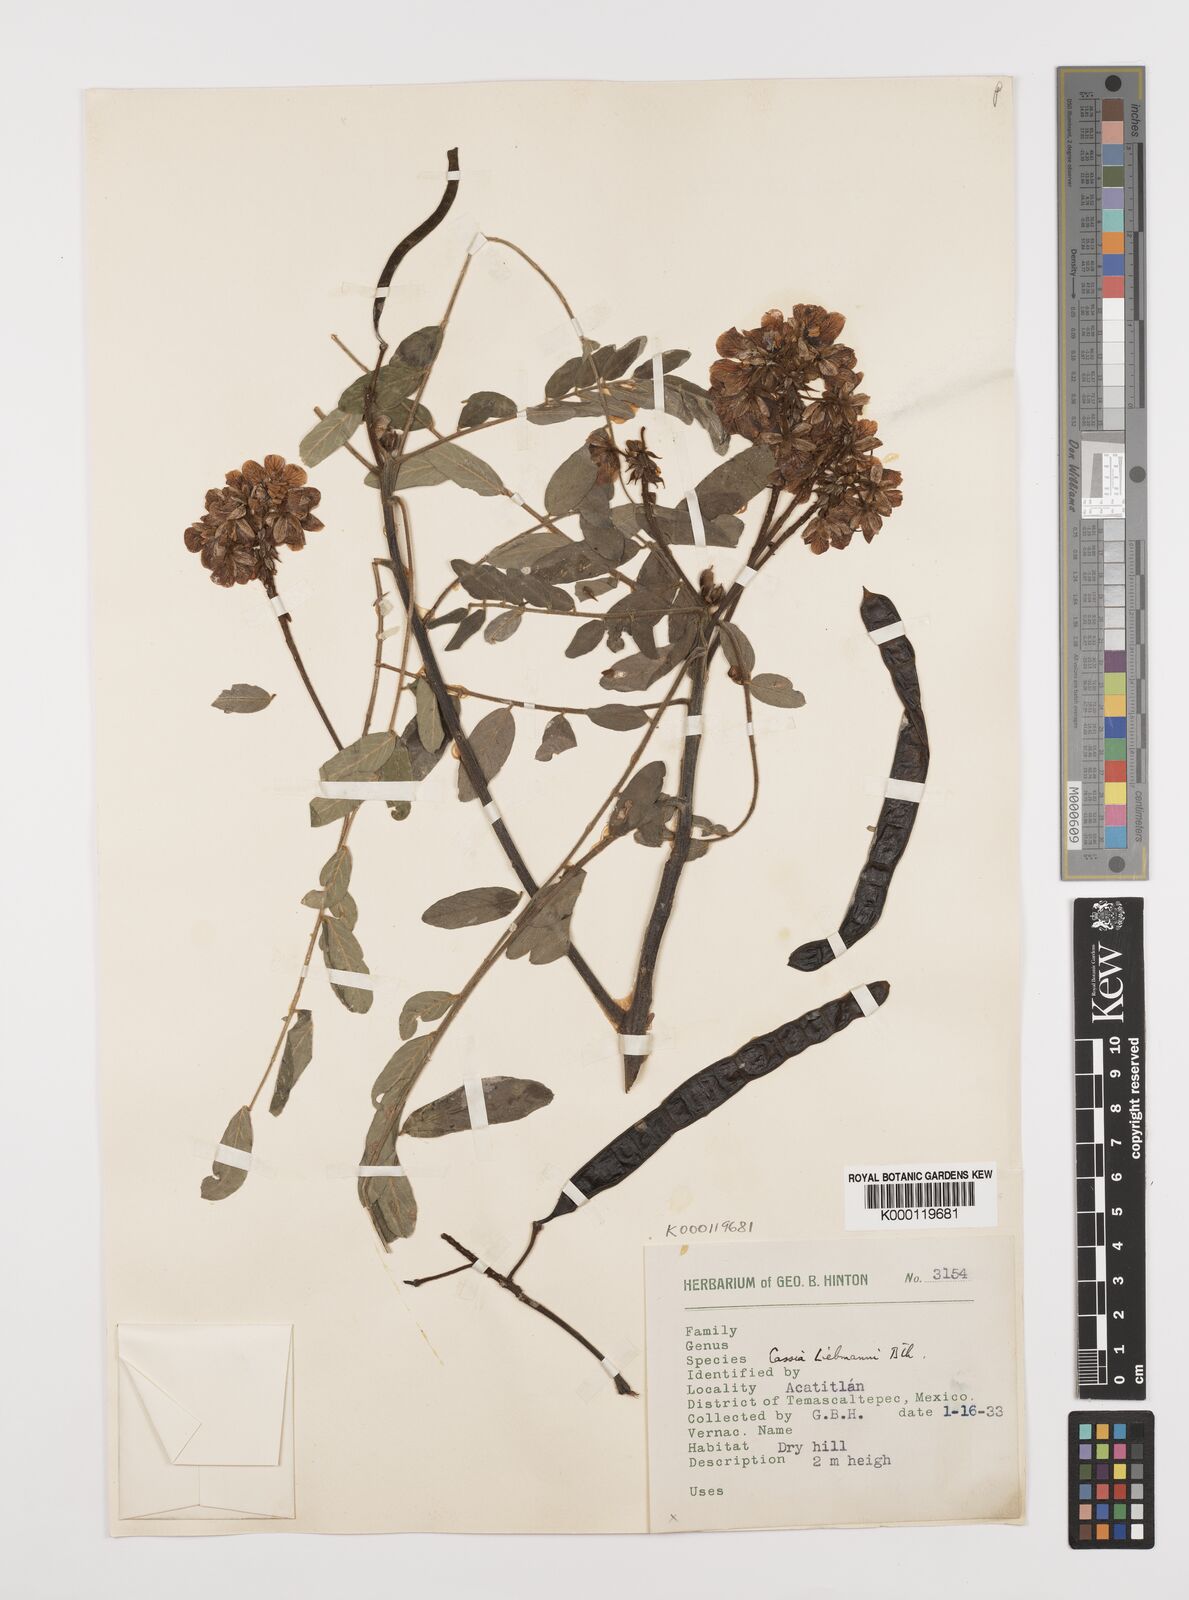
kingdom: Plantae
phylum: Tracheophyta
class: Magnoliopsida
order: Fabales
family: Fabaceae
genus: Senna
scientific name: Senna racemosa
